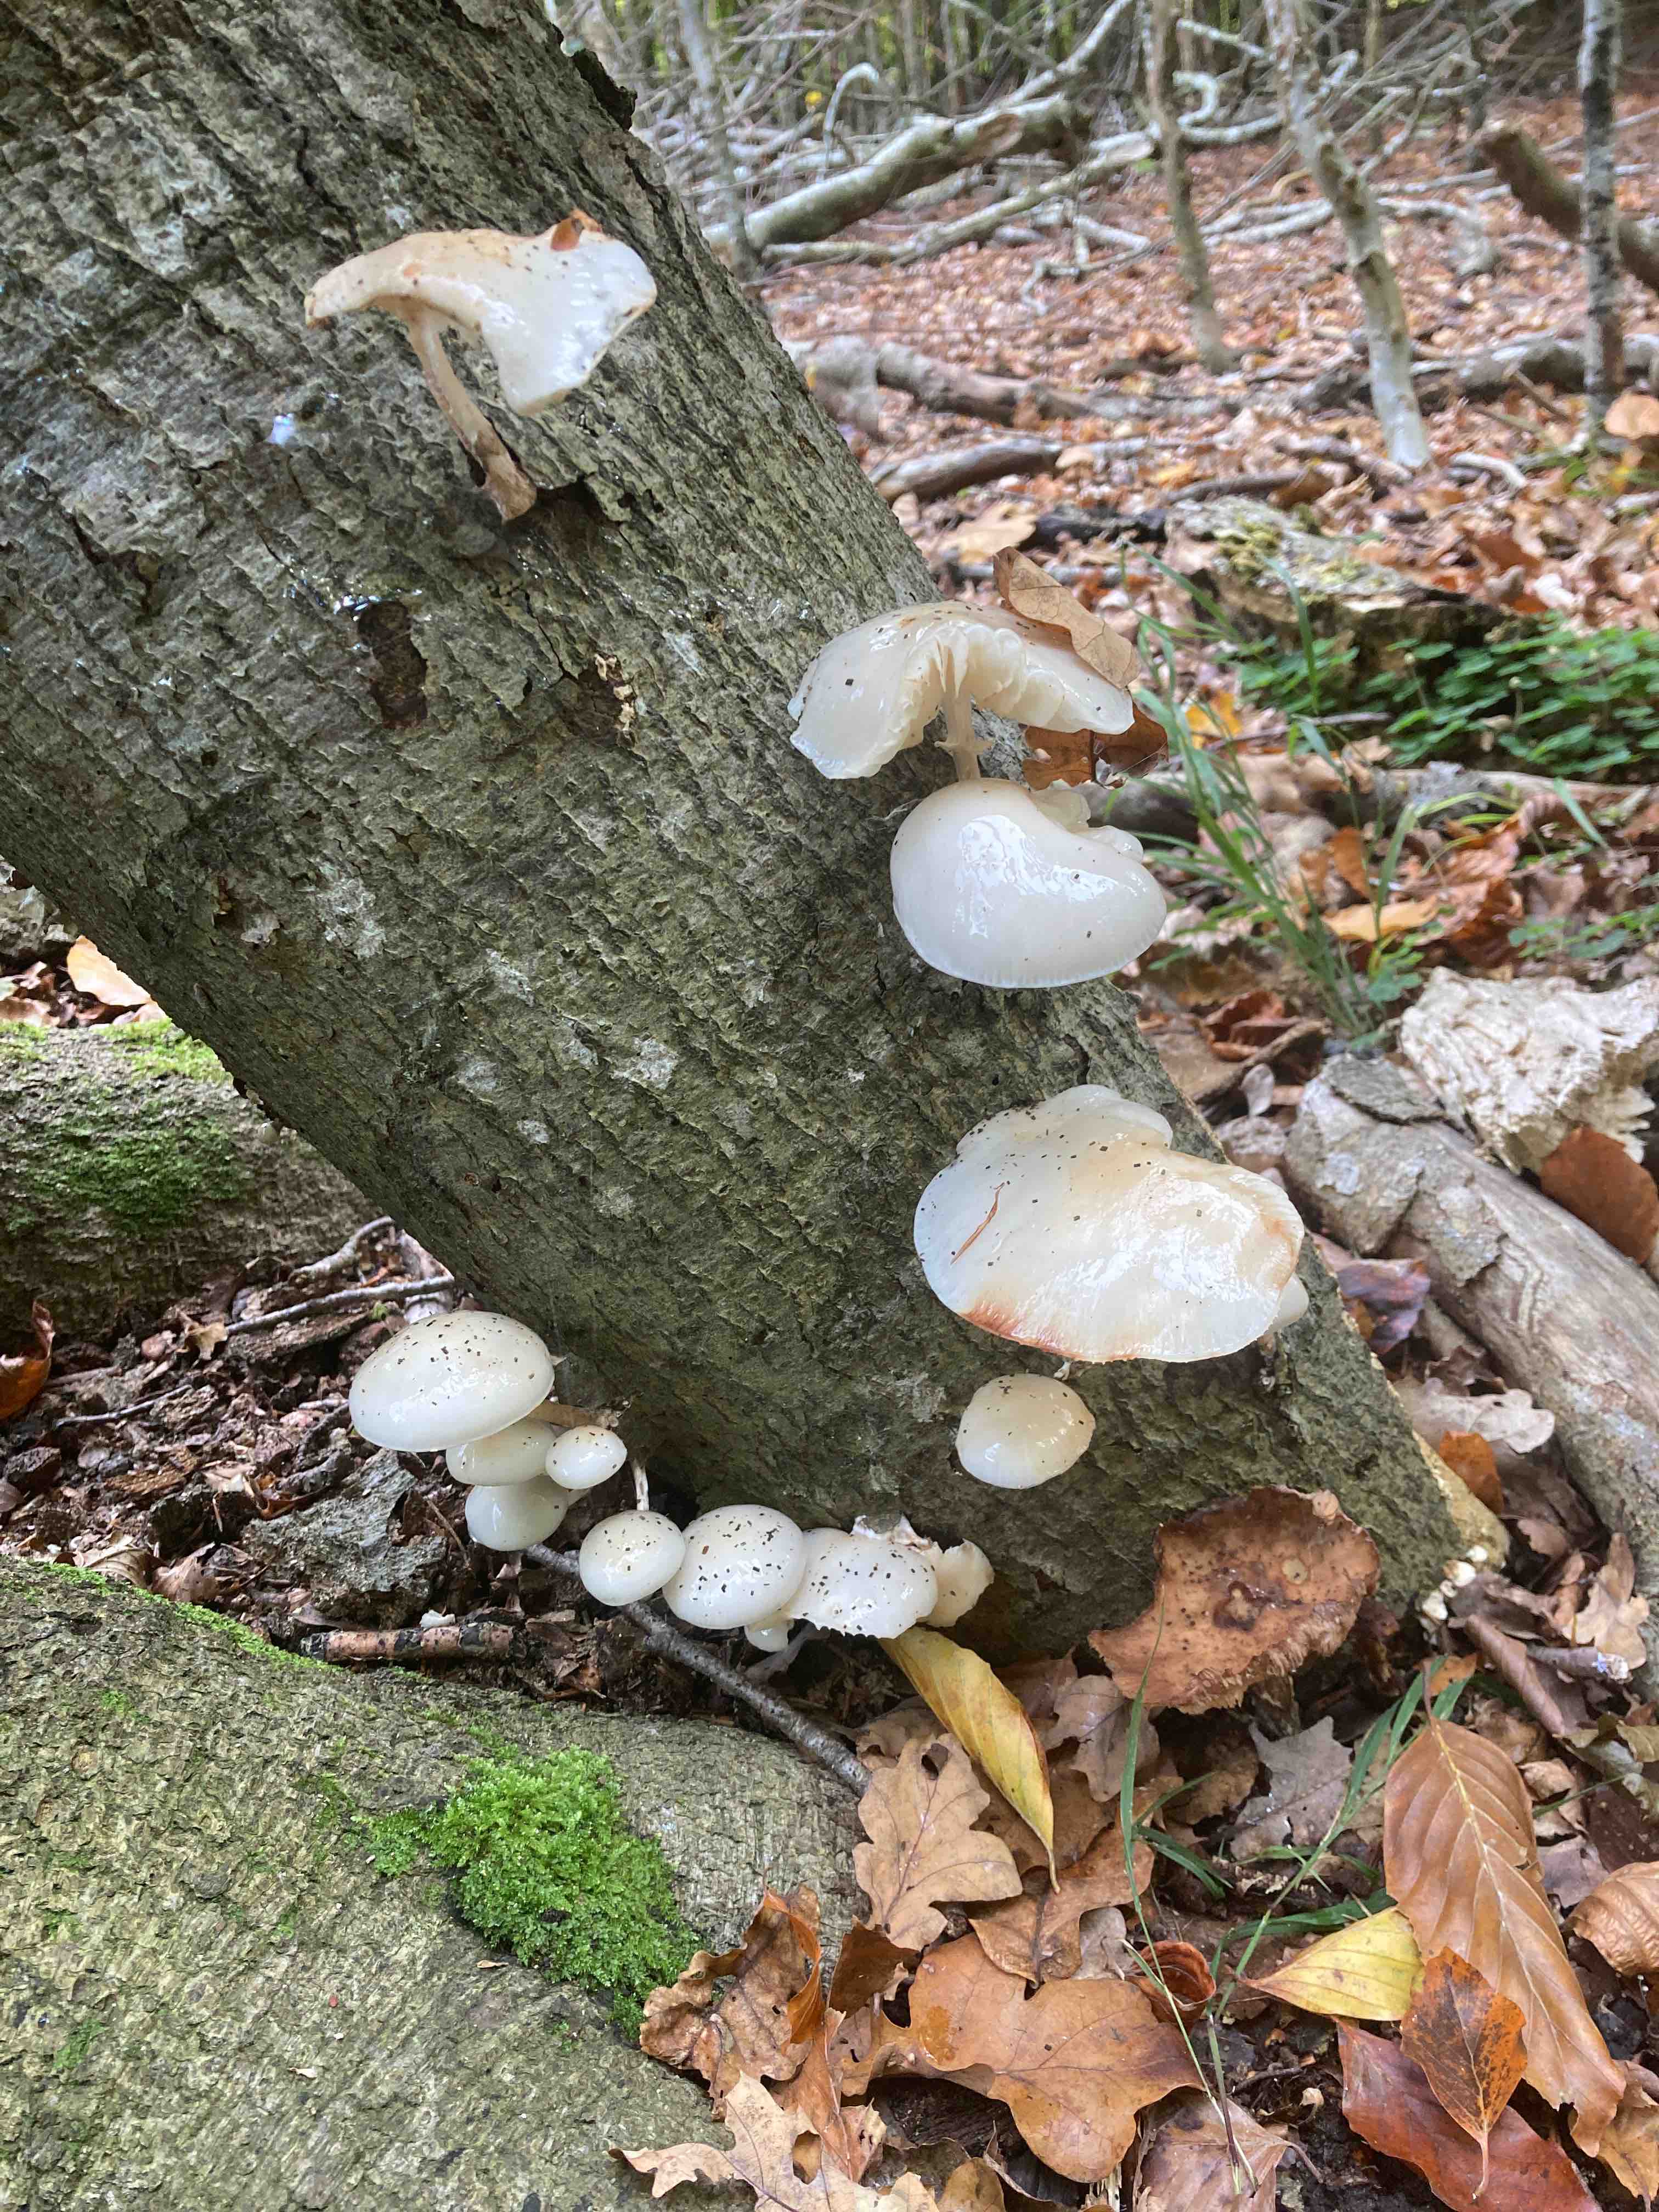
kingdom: Fungi
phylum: Basidiomycota
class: Agaricomycetes
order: Agaricales
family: Physalacriaceae
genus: Mucidula
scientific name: Mucidula mucida
